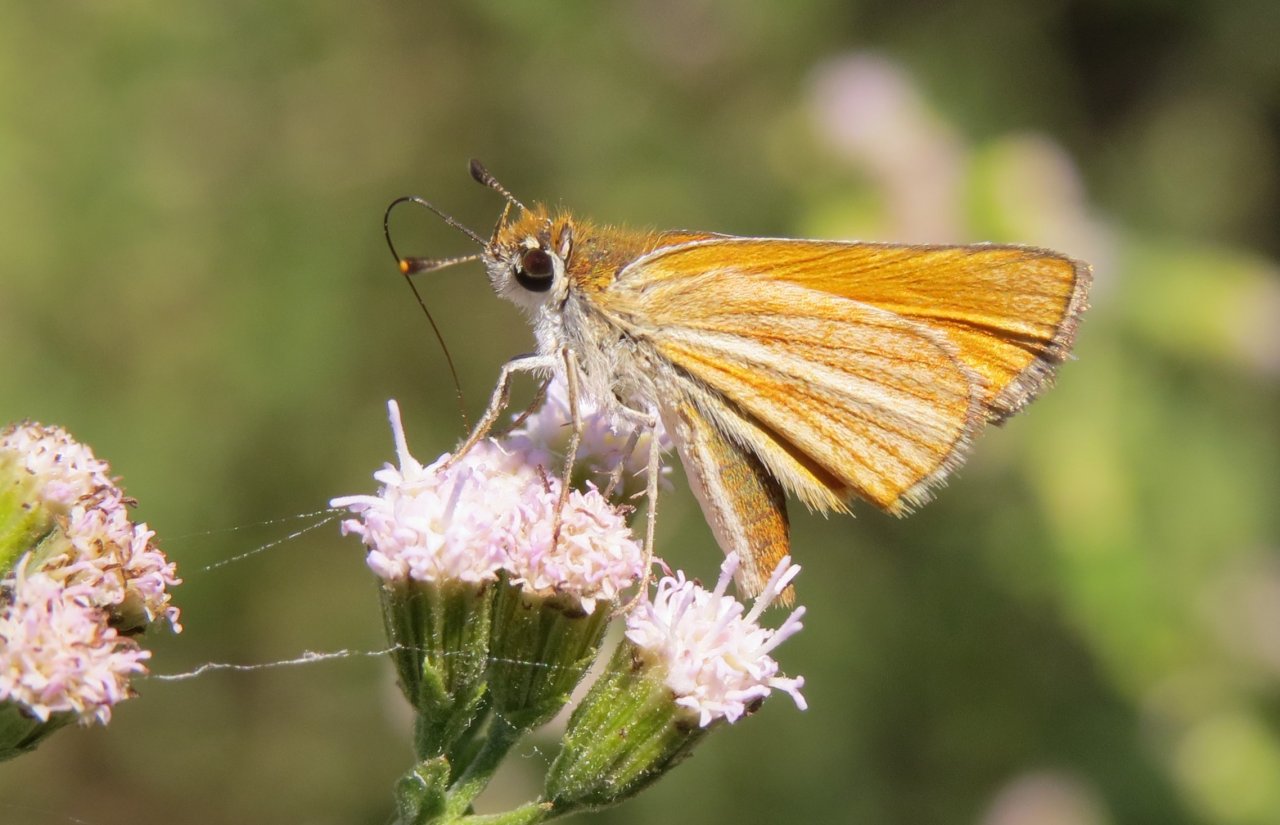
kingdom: Animalia
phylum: Arthropoda
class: Insecta
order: Lepidoptera
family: Hesperiidae
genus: Copaeodes
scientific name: Copaeodes minima
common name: Southern Skipperling
